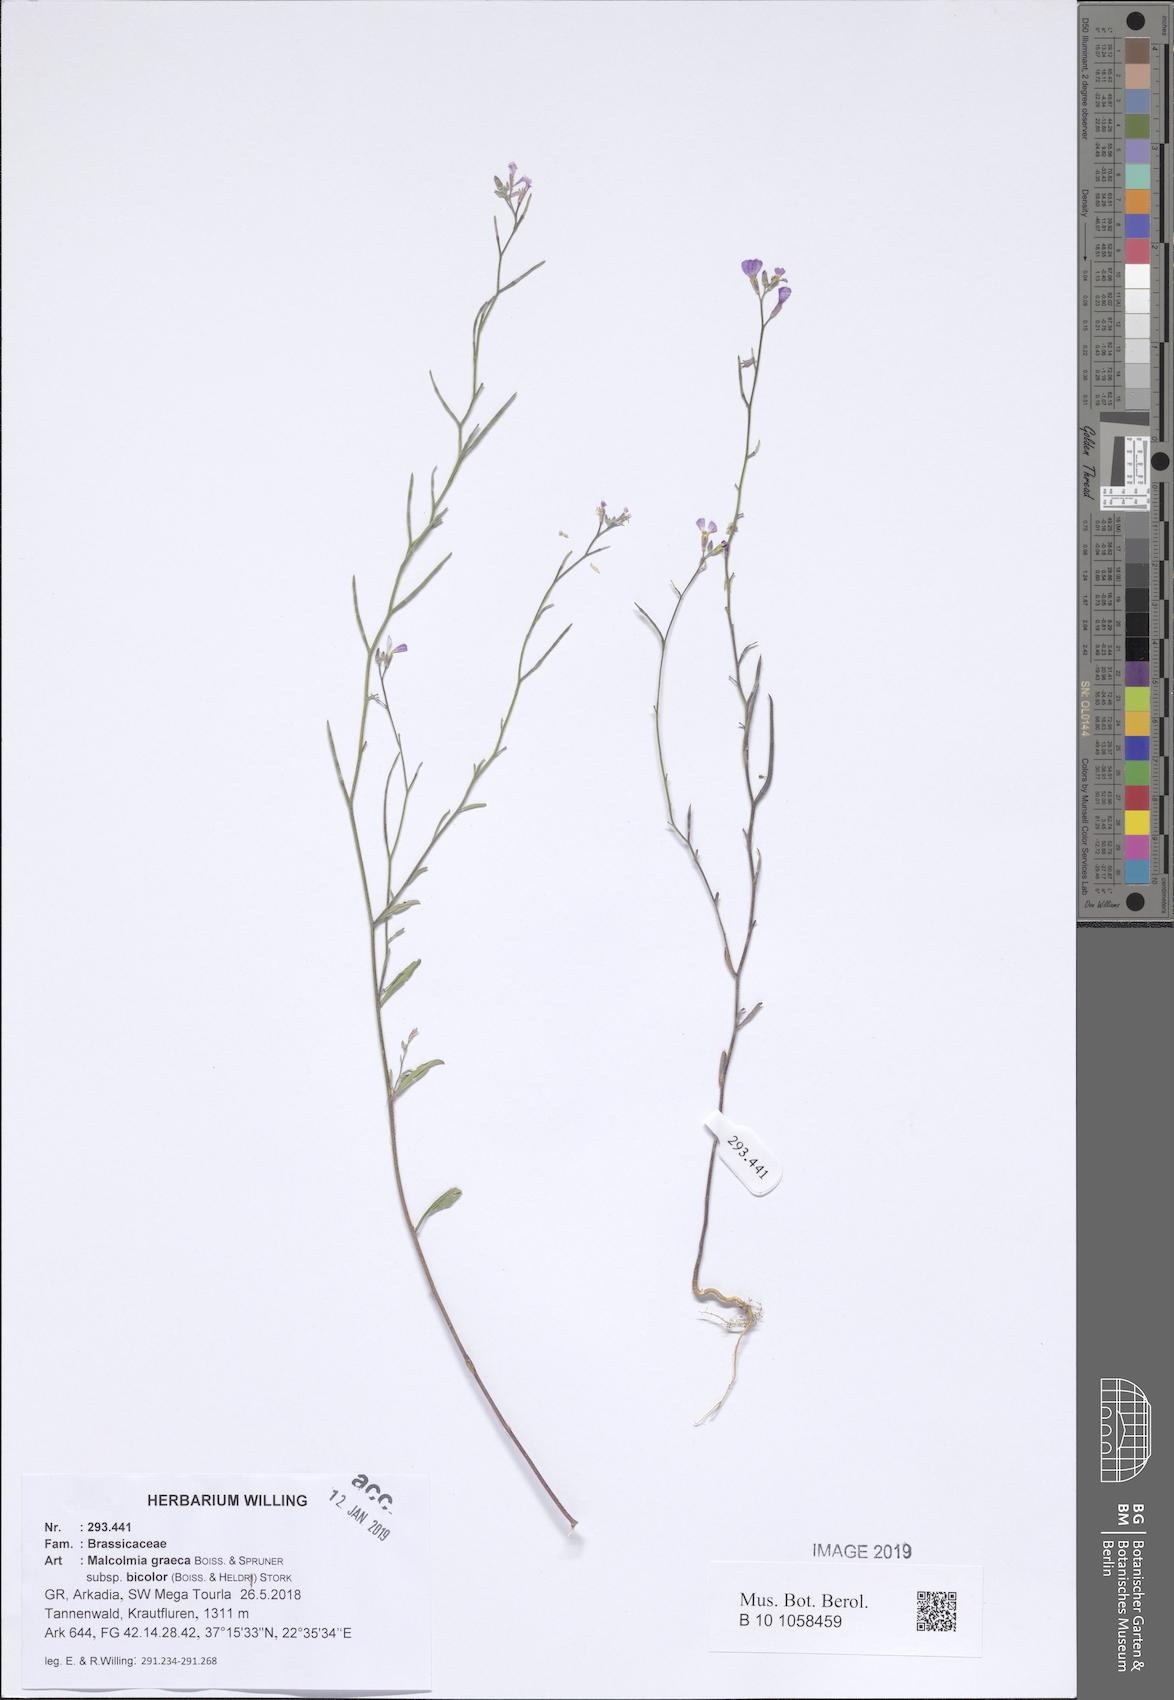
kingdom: Plantae
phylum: Tracheophyta
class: Magnoliopsida
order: Brassicales
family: Brassicaceae
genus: Malcolmia
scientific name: Malcolmia graeca
